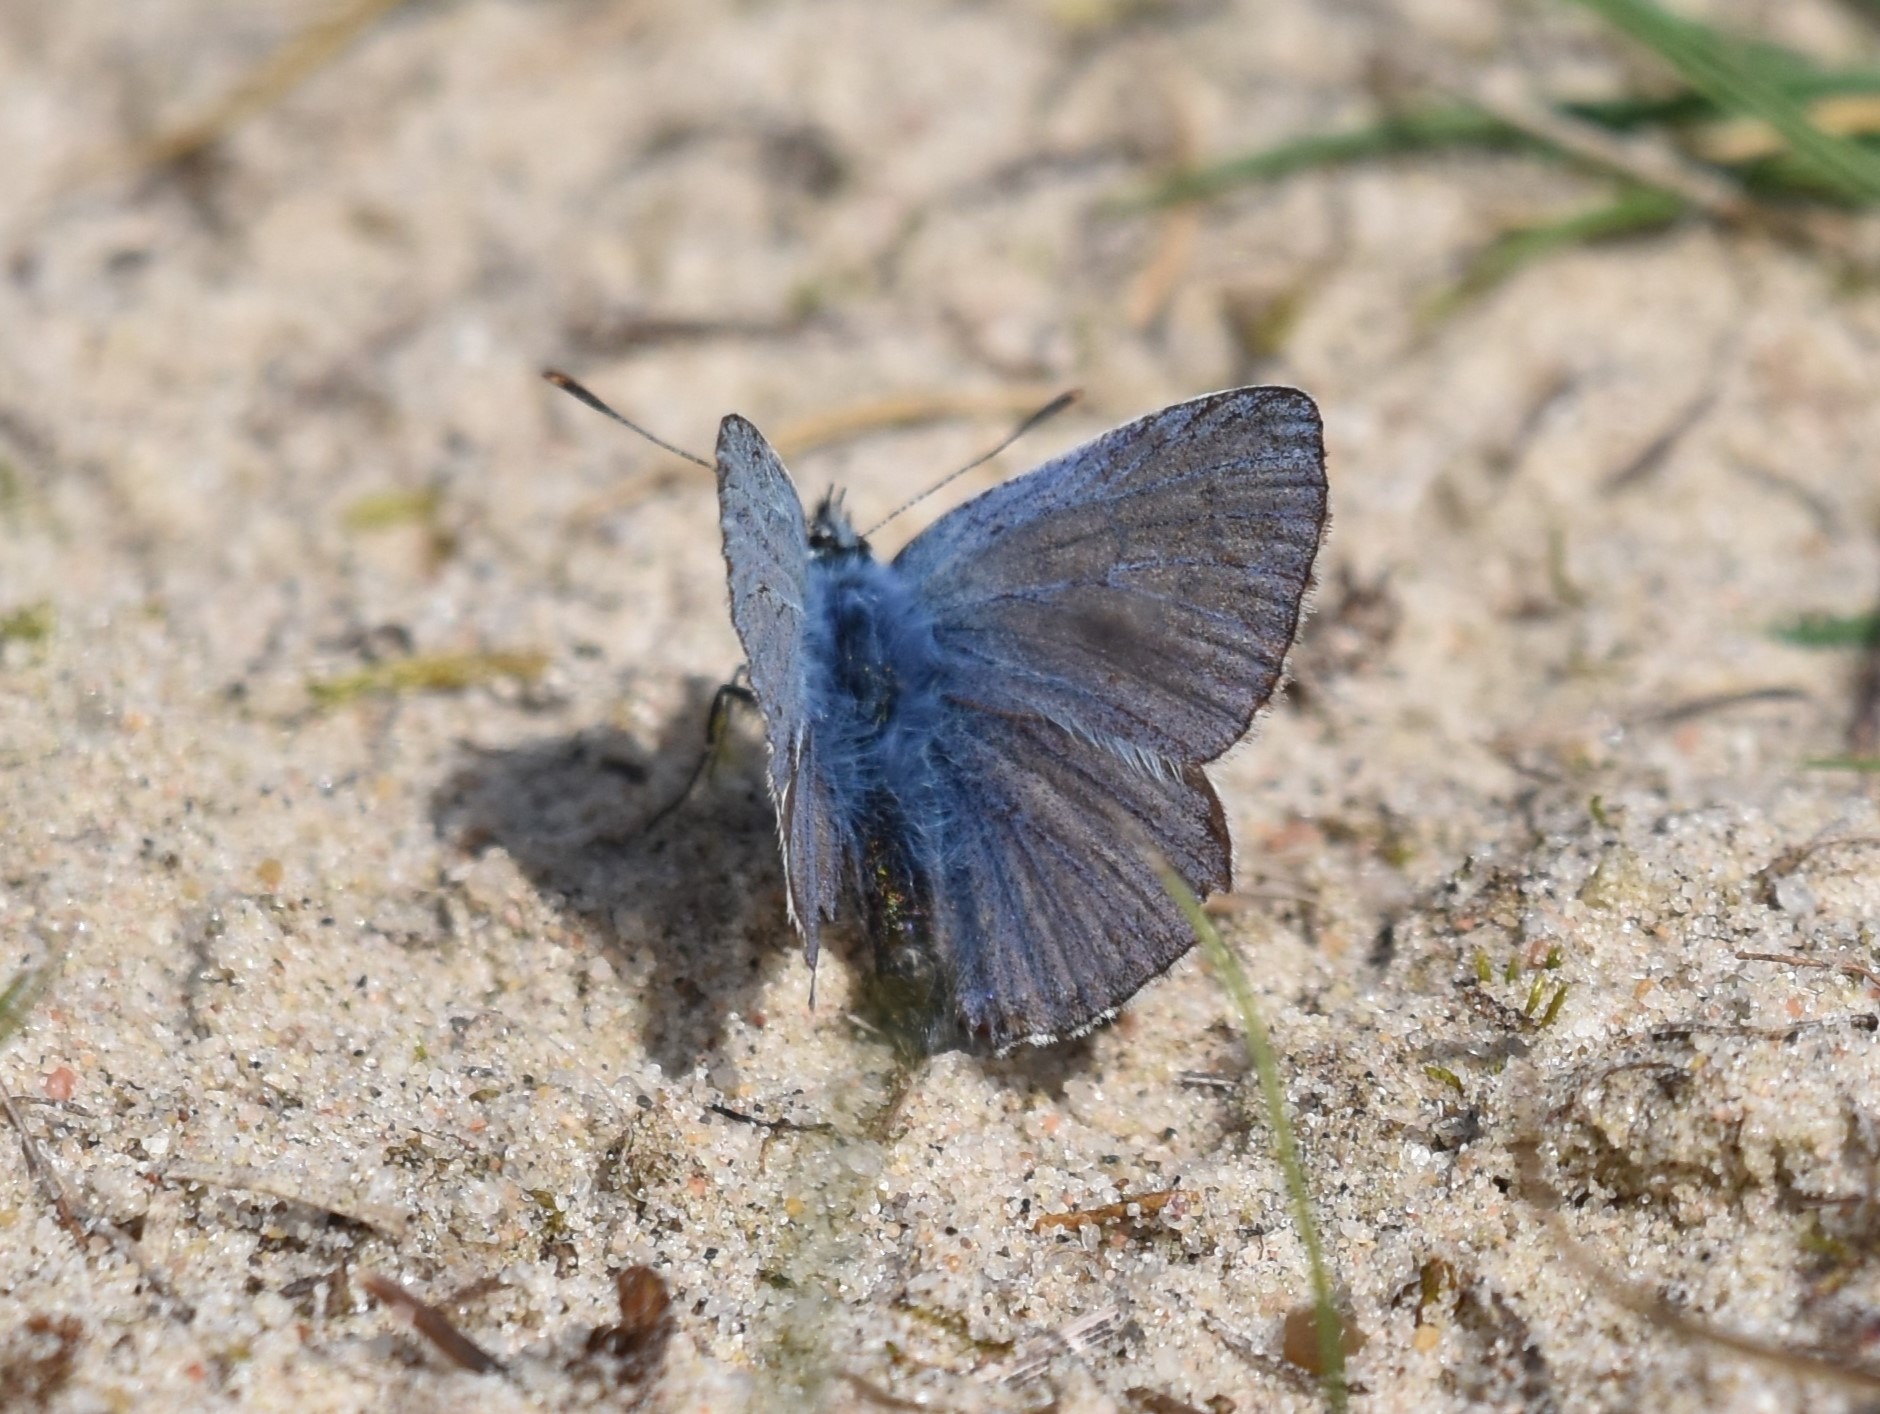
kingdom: Animalia
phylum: Arthropoda
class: Insecta
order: Lepidoptera
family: Lycaenidae
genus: Polyommatus
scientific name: Polyommatus icarus
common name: Almindelig blåfugl
